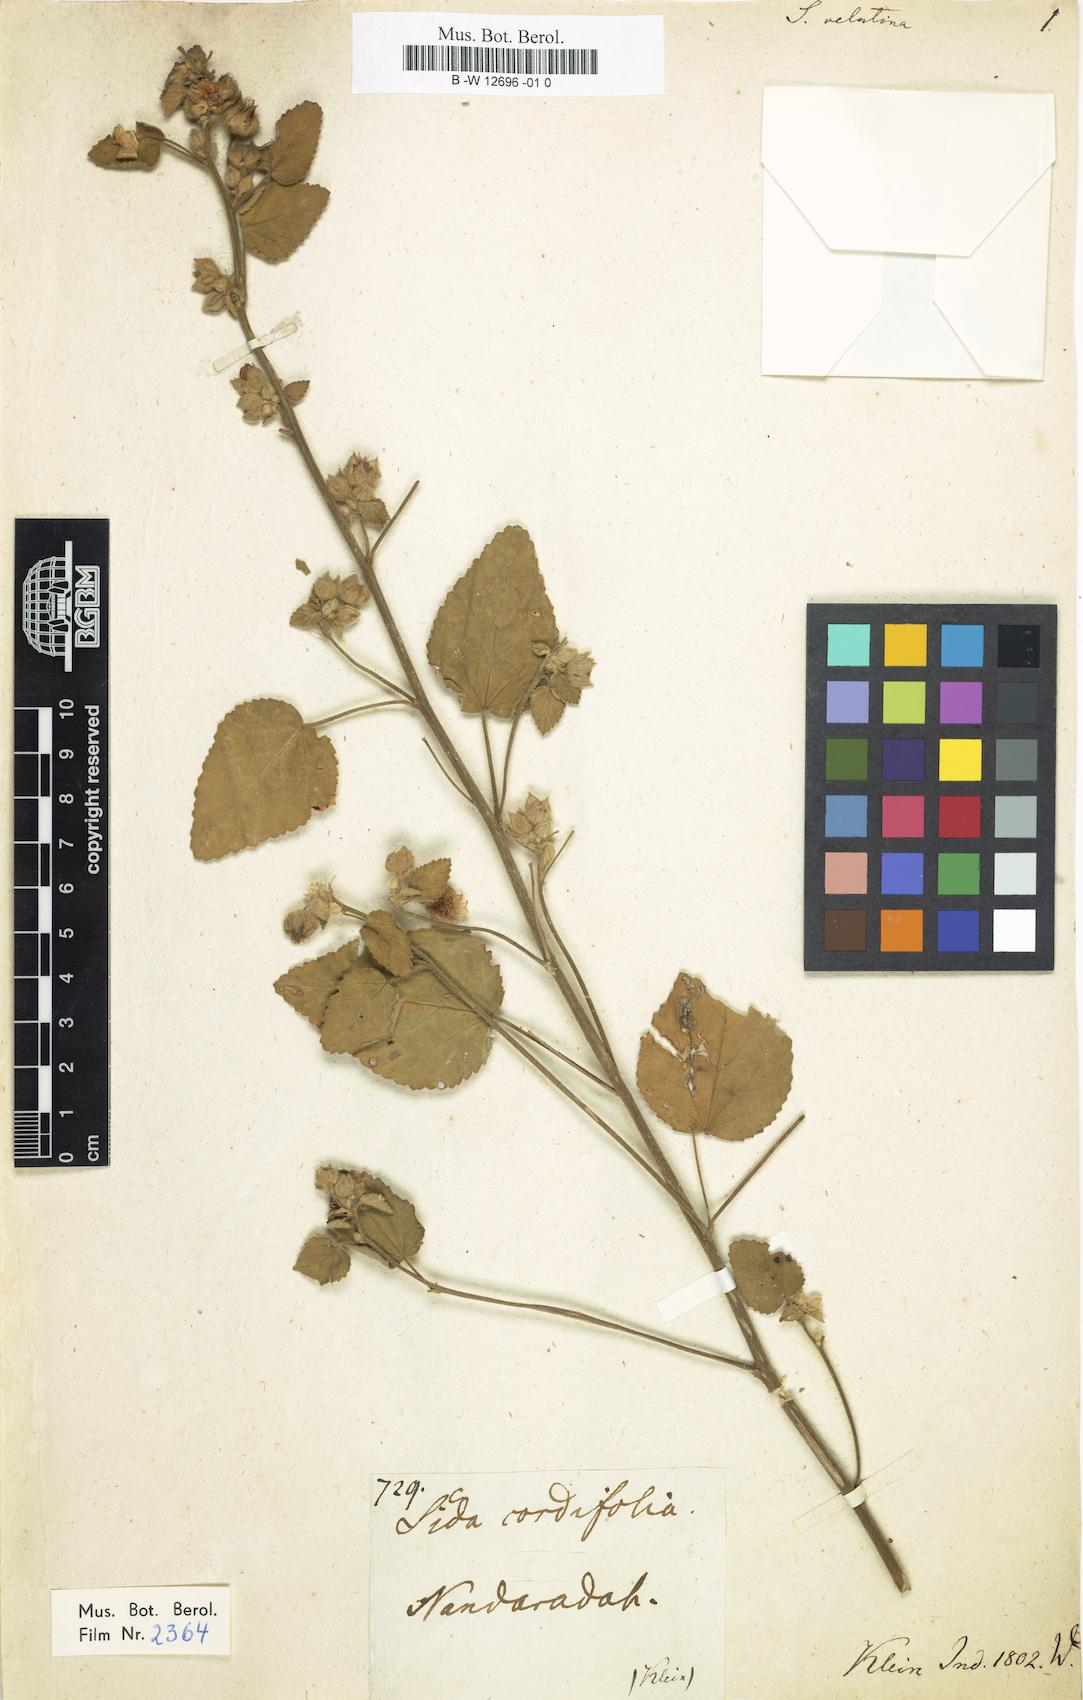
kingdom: Plantae
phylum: Tracheophyta
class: Magnoliopsida
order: Malvales
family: Malvaceae
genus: Sida
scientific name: Sida cordifolia
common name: Ilima
